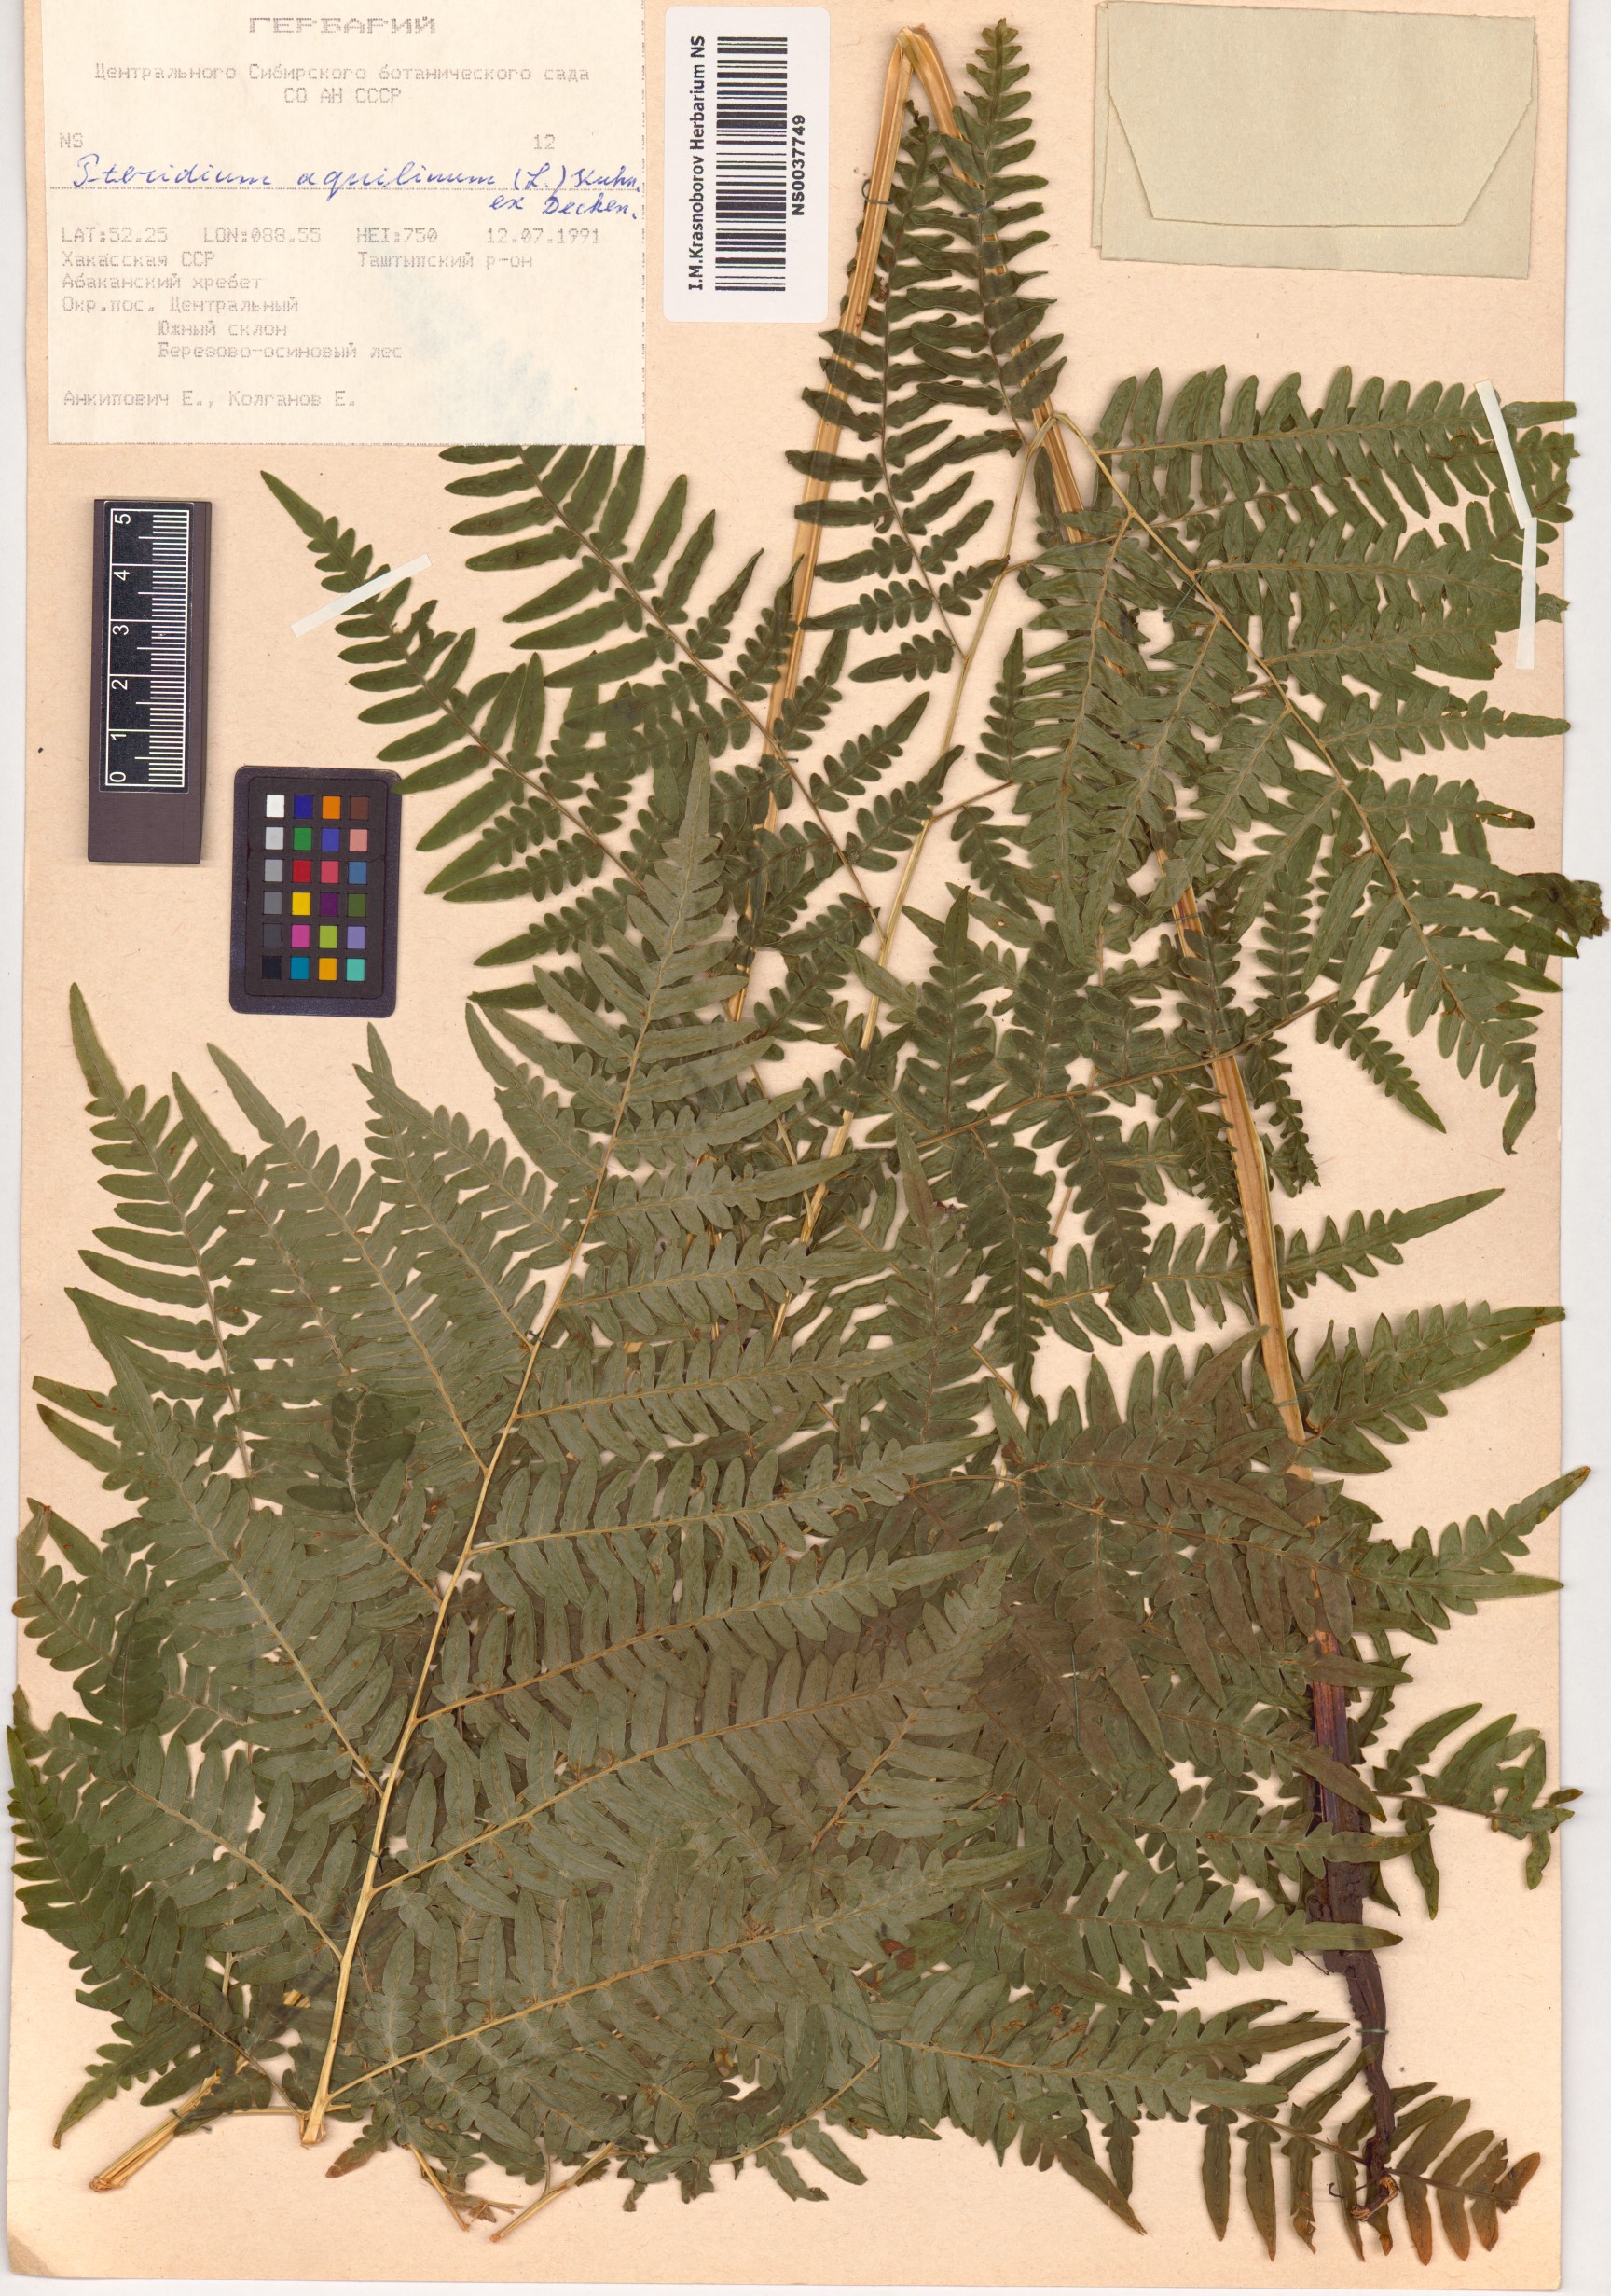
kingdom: Plantae
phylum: Tracheophyta
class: Polypodiopsida
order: Polypodiales
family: Dennstaedtiaceae
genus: Pteridium
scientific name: Pteridium aquilinum
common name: Bracken
